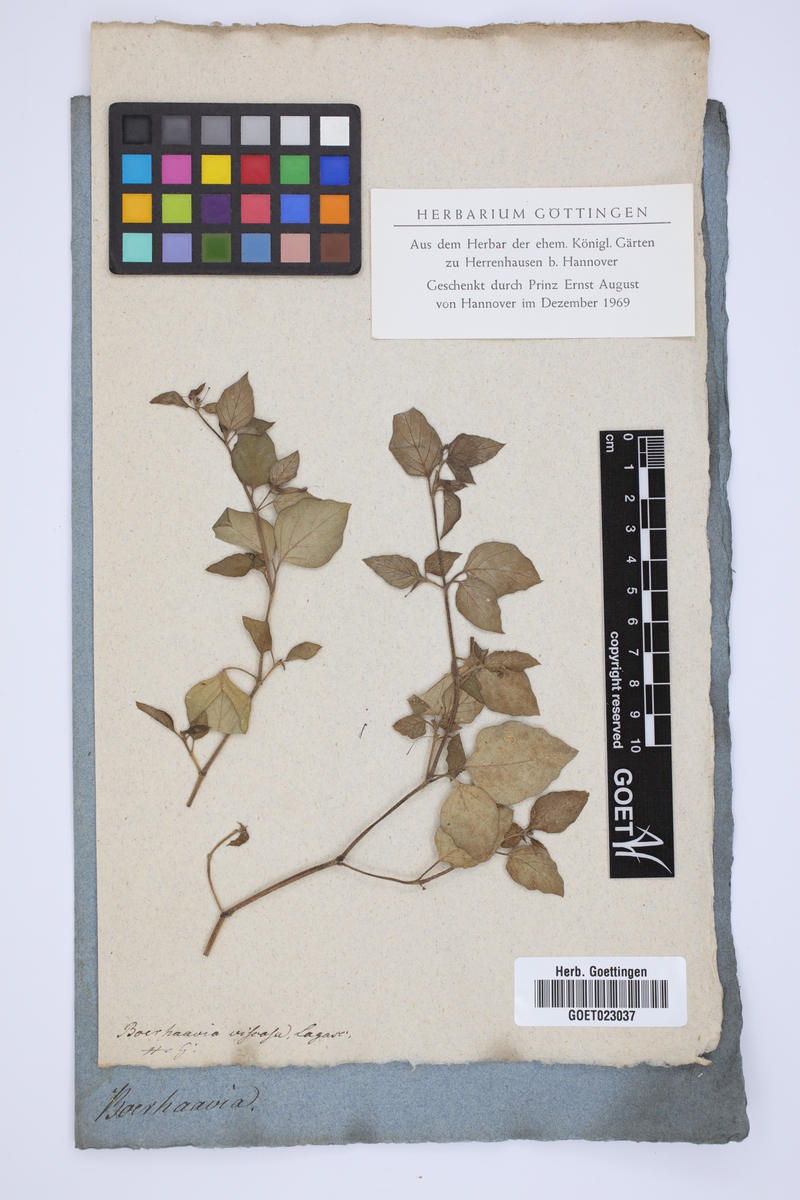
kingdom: Plantae
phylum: Tracheophyta
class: Magnoliopsida
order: Caryophyllales
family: Nyctaginaceae
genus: Boerhavia
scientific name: Boerhavia coccinea
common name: Scarlet spiderling
